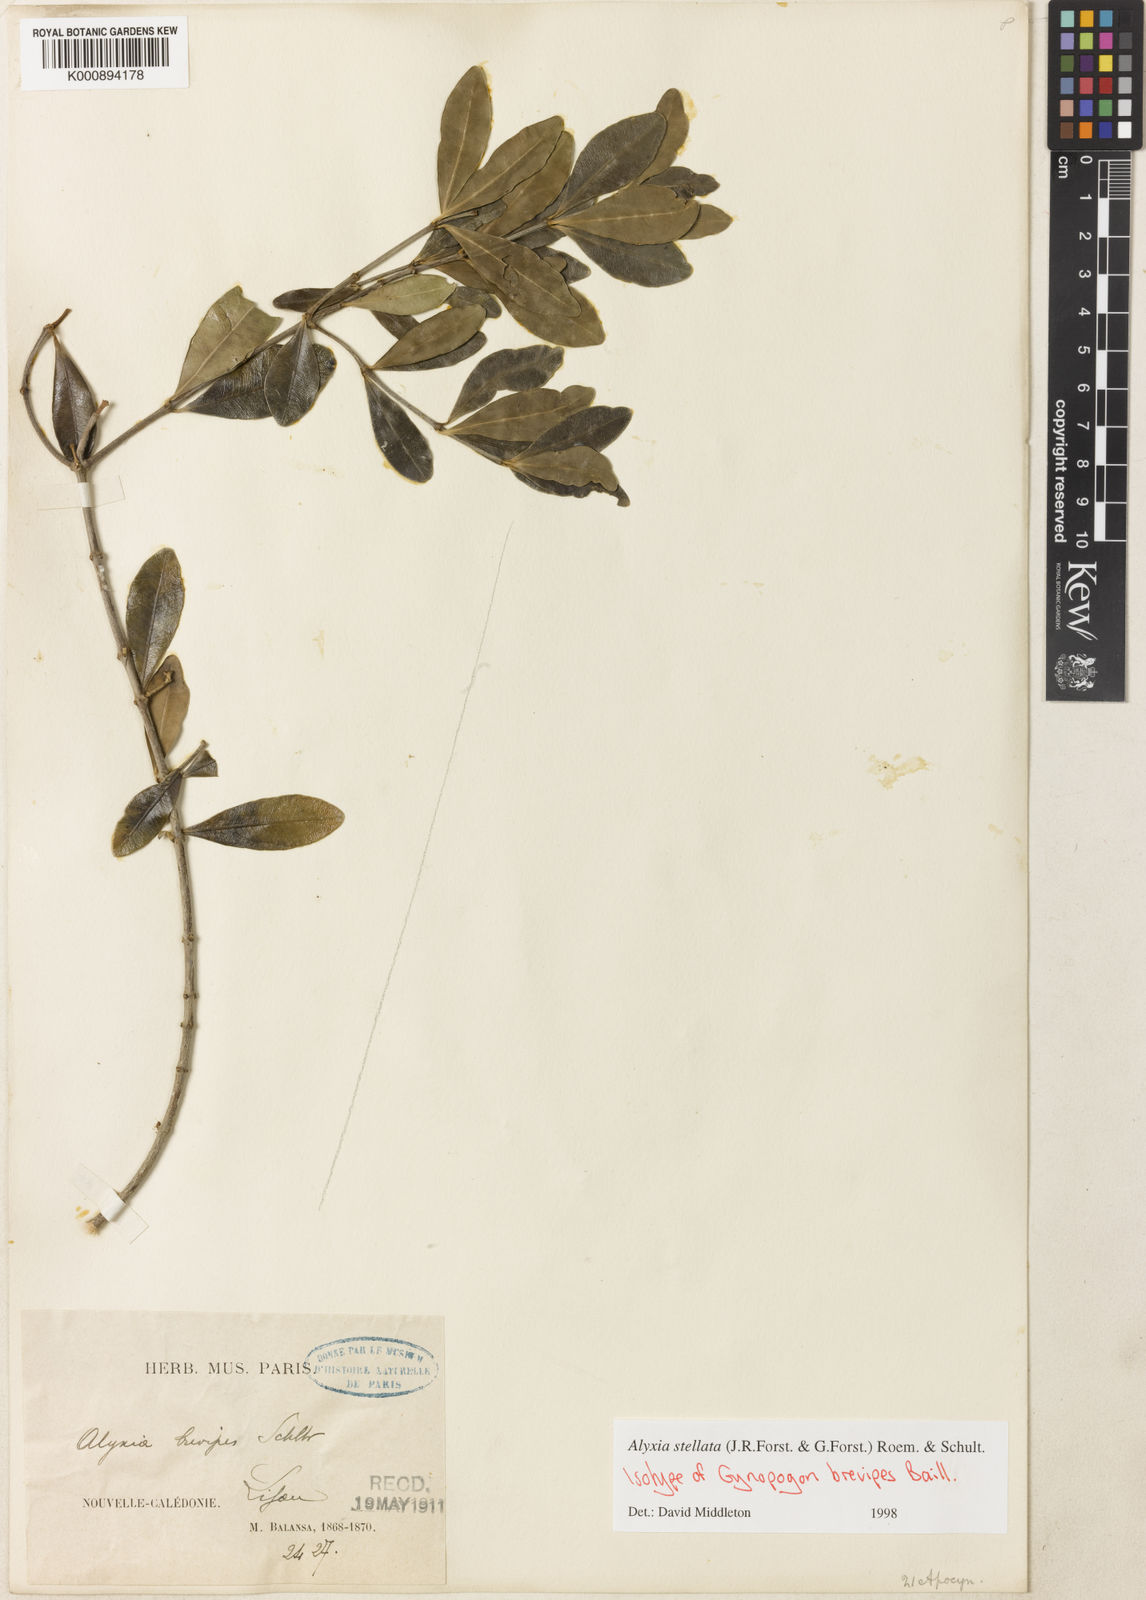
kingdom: Plantae
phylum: Tracheophyta
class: Magnoliopsida
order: Gentianales
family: Apocynaceae
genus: Alyxia
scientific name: Alyxia loeseneriana
